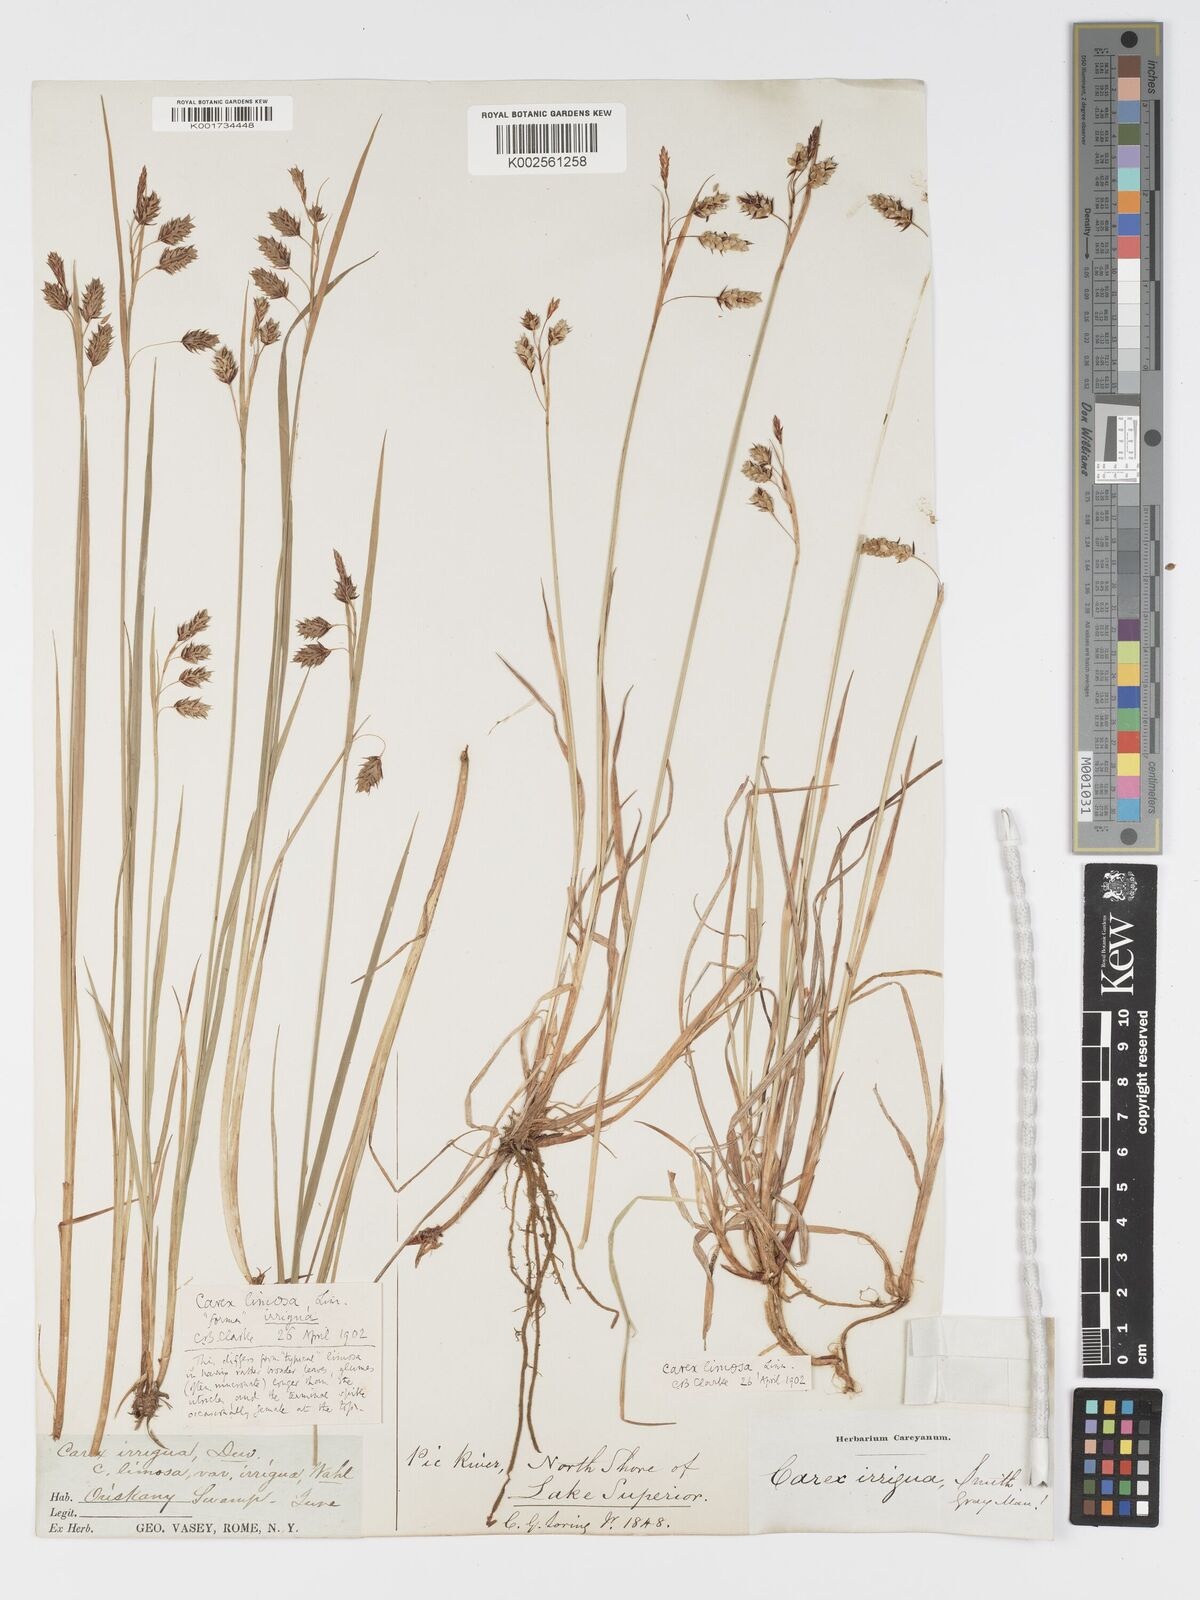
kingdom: Plantae
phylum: Tracheophyta
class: Liliopsida
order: Poales
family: Cyperaceae
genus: Carex
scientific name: Carex limosa
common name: Bog sedge
